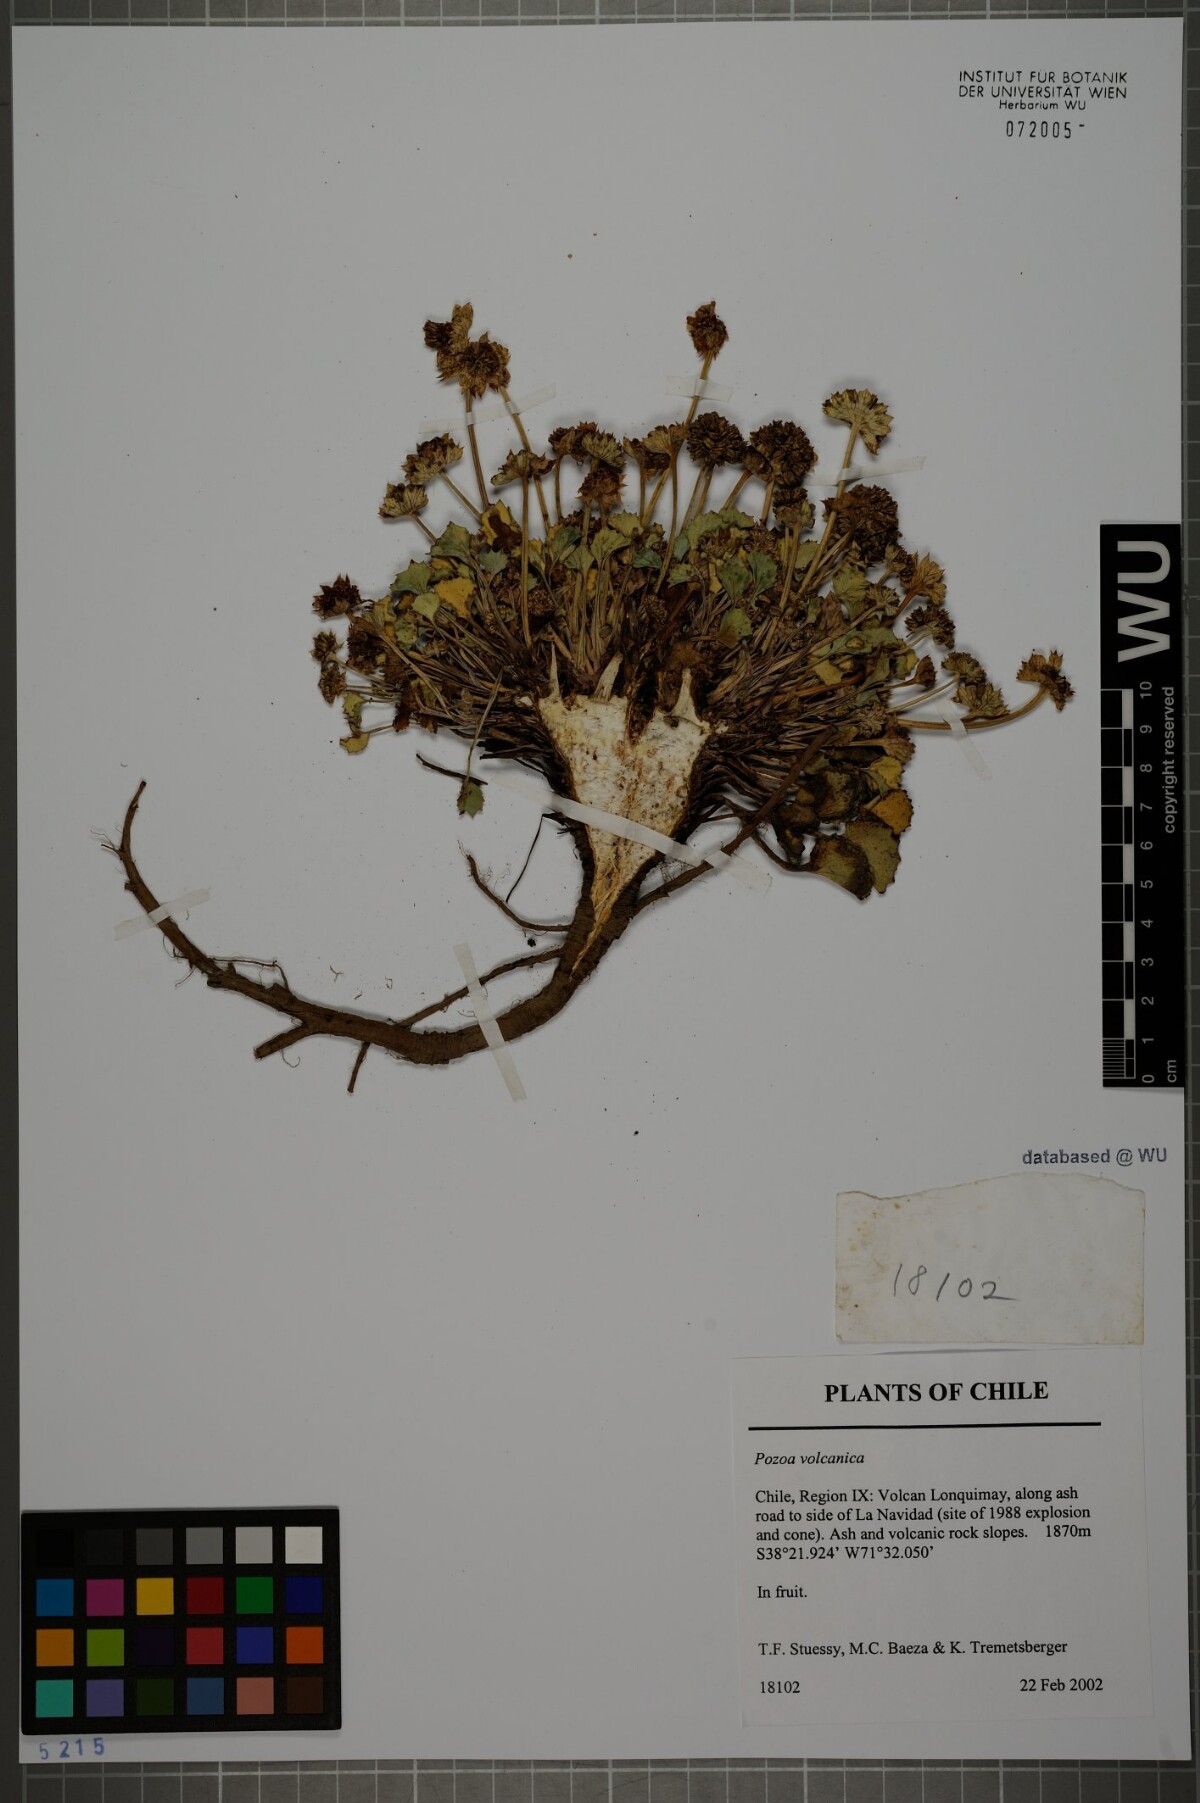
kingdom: Plantae
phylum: Tracheophyta
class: Magnoliopsida
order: Apiales
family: Apiaceae
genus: Pozoa
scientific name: Pozoa volcanica
